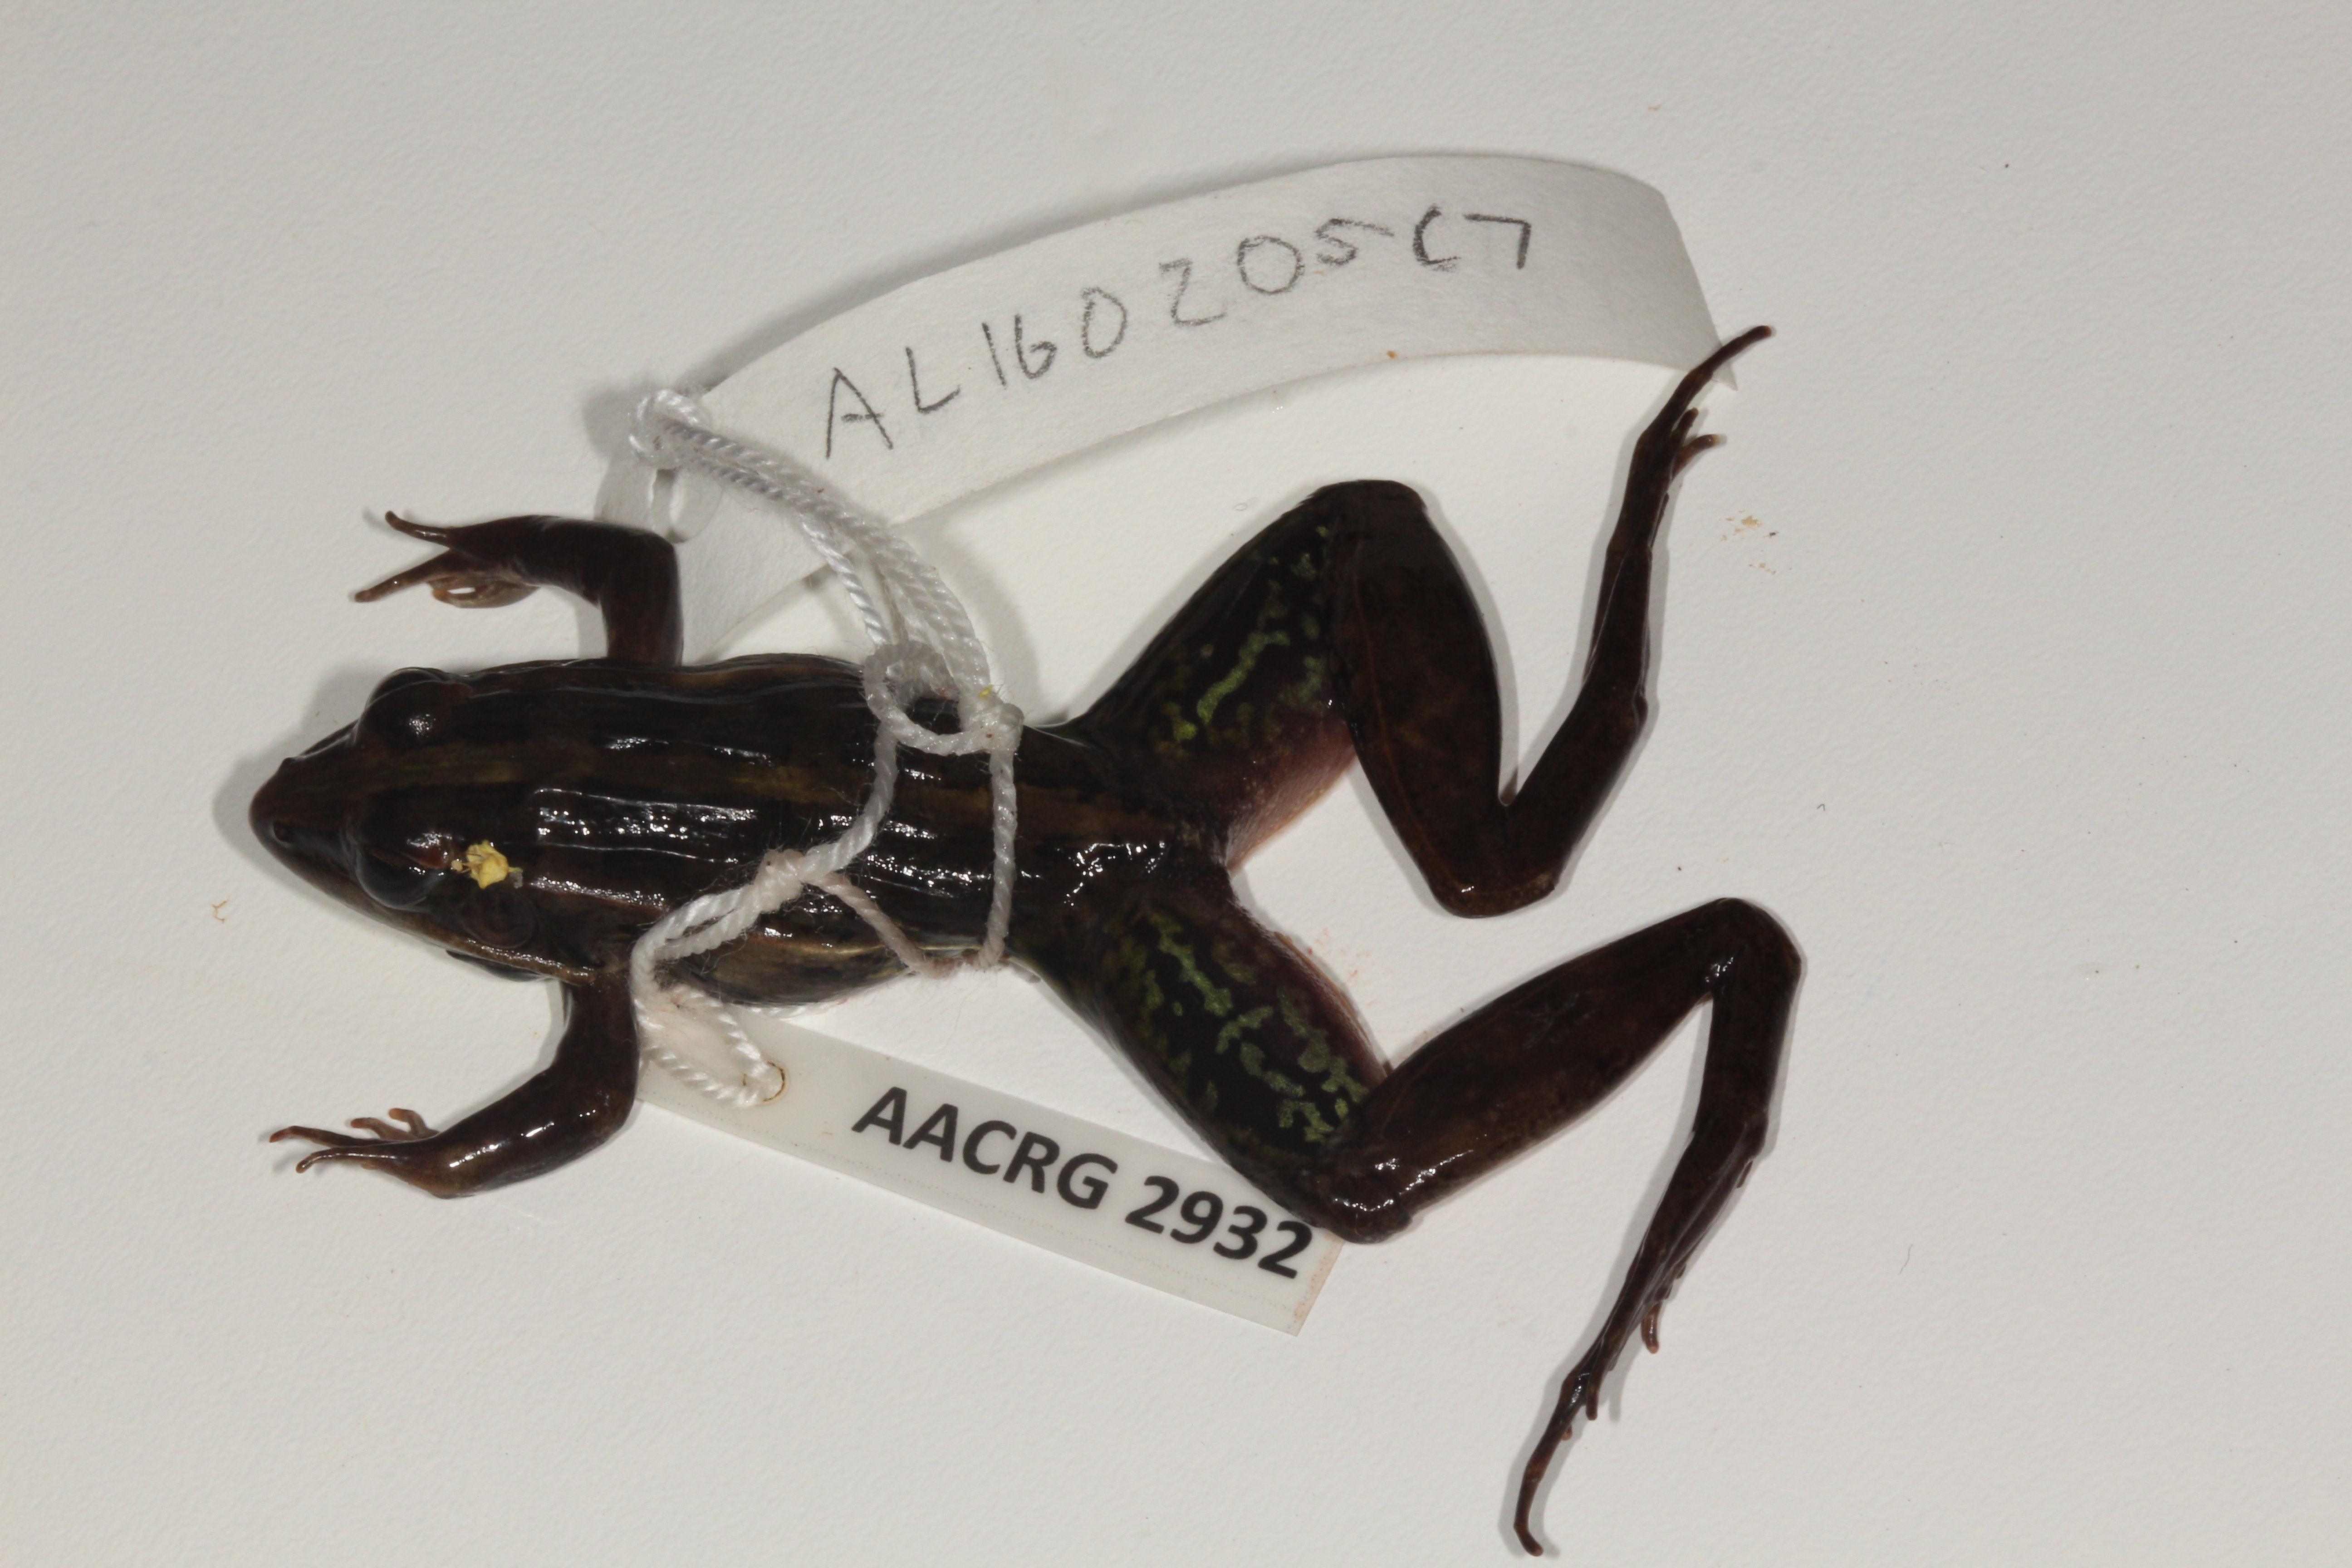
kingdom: Animalia
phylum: Chordata
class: Amphibia
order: Anura
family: Ptychadenidae
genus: Ptychadena
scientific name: Ptychadena mossambica
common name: Mozambique ridged frog
